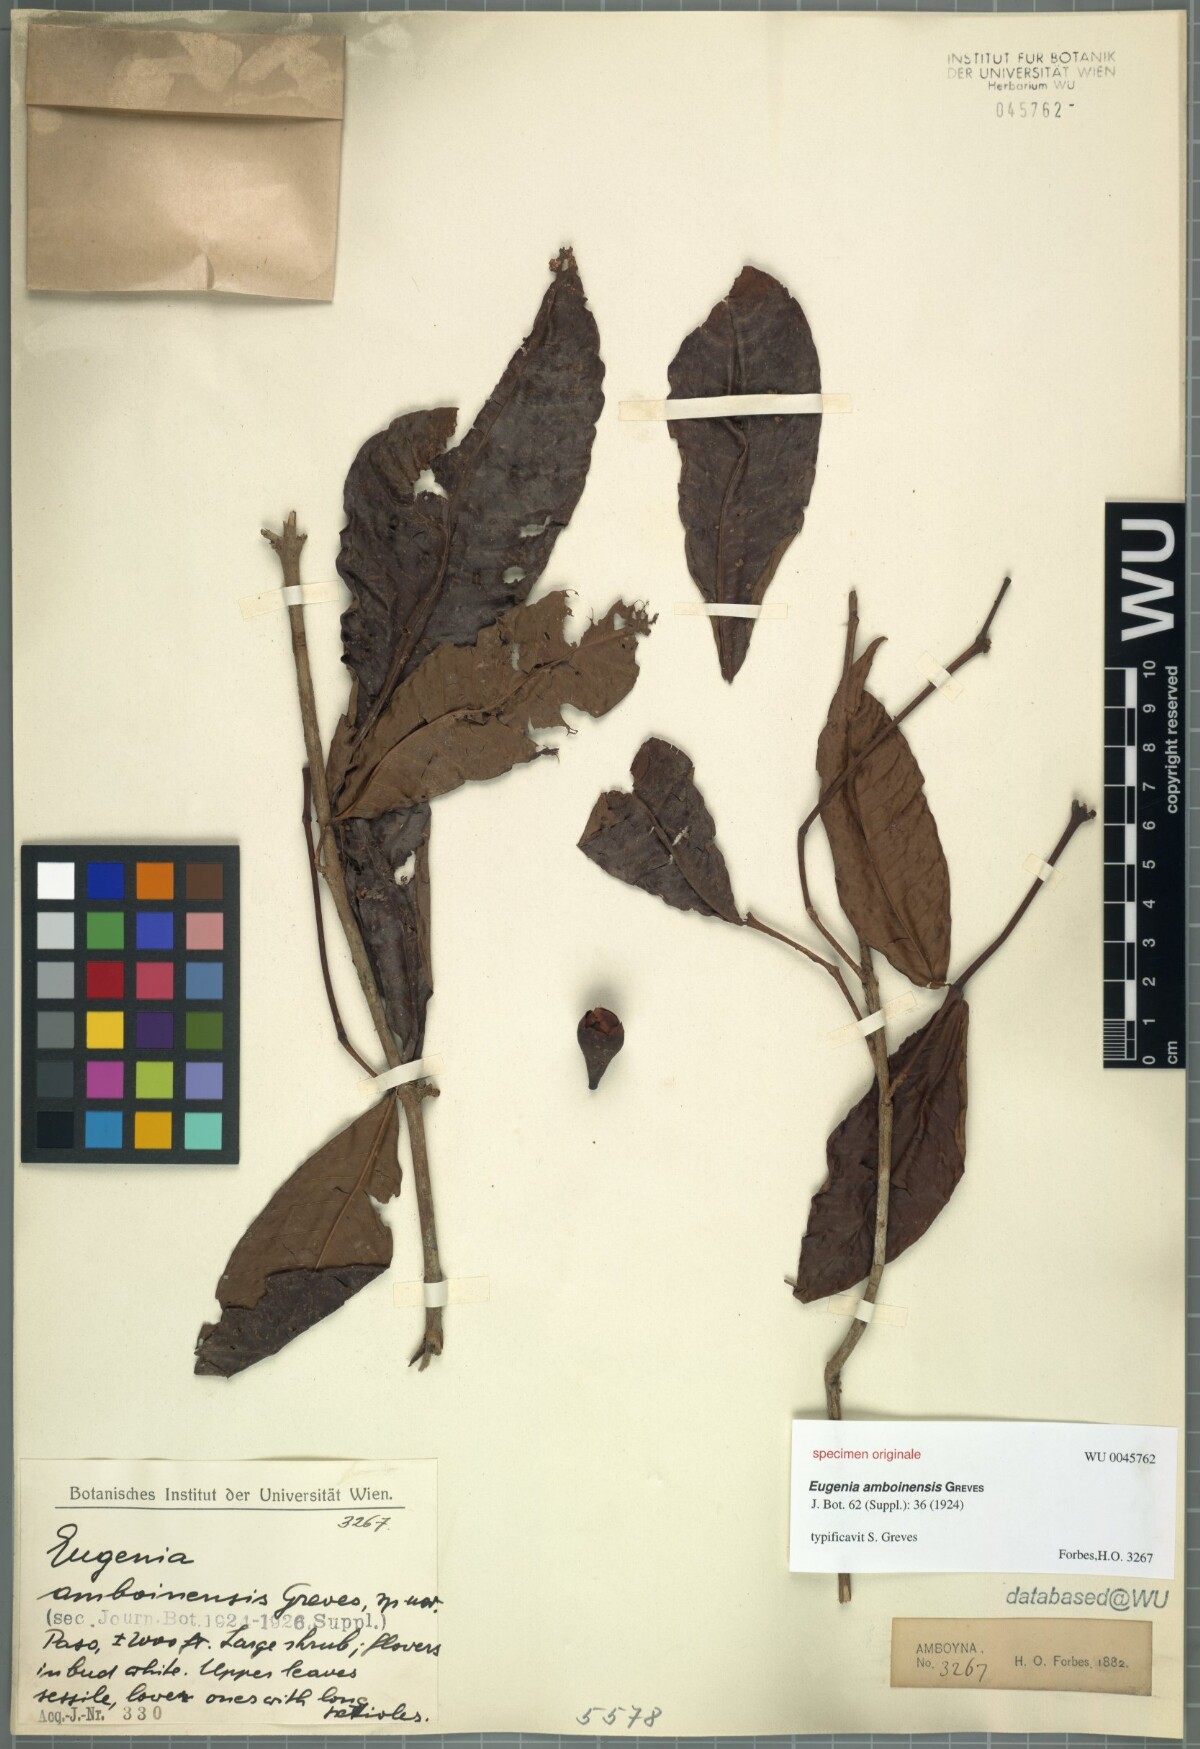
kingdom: Plantae
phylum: Tracheophyta
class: Magnoliopsida
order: Myrtales
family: Myrtaceae
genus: Eugenia
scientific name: Eugenia amboinensis
